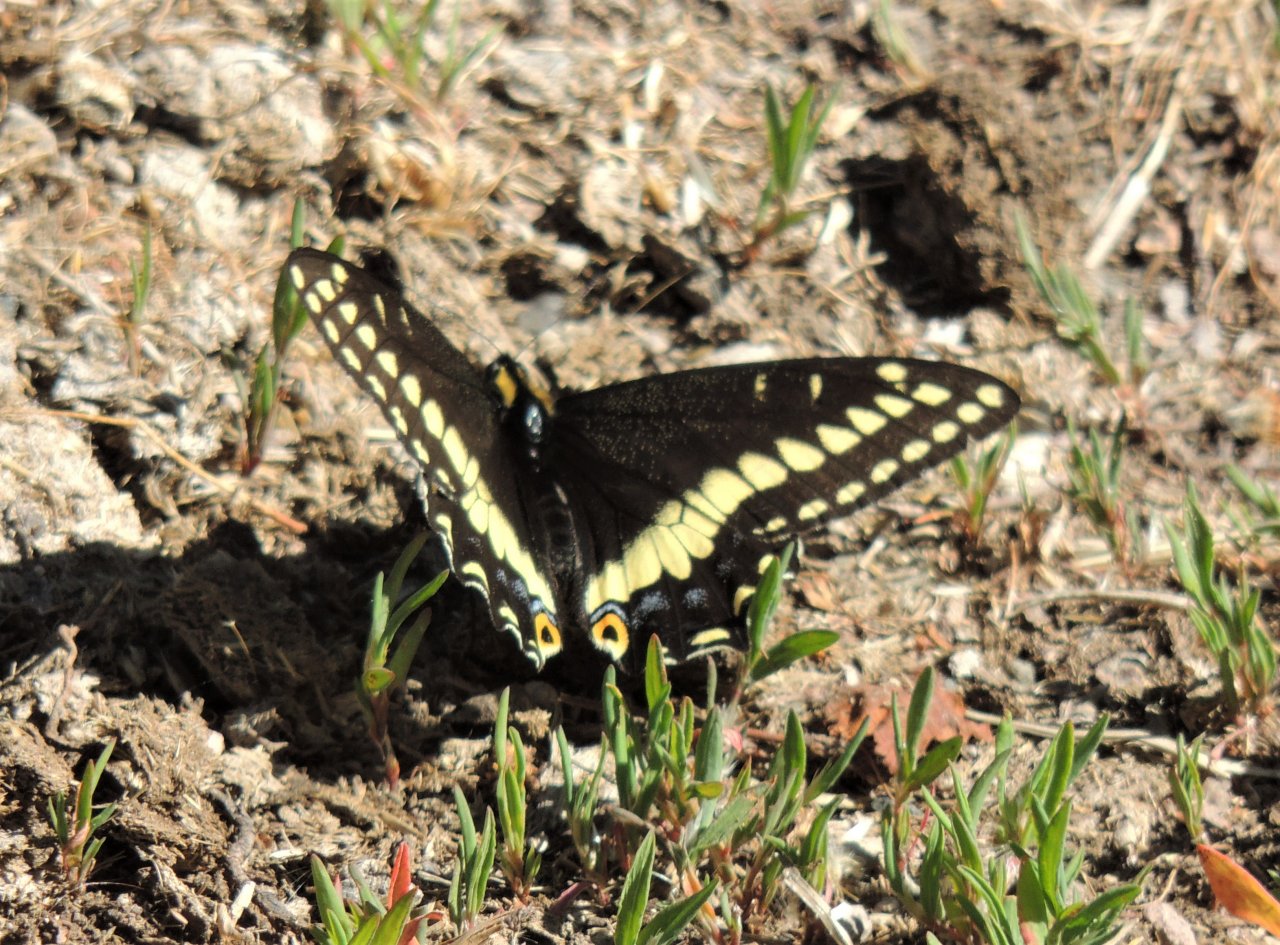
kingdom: Animalia
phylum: Arthropoda
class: Insecta
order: Lepidoptera
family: Papilionidae
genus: Papilio
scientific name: Papilio indra
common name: Indra Swallowtail
